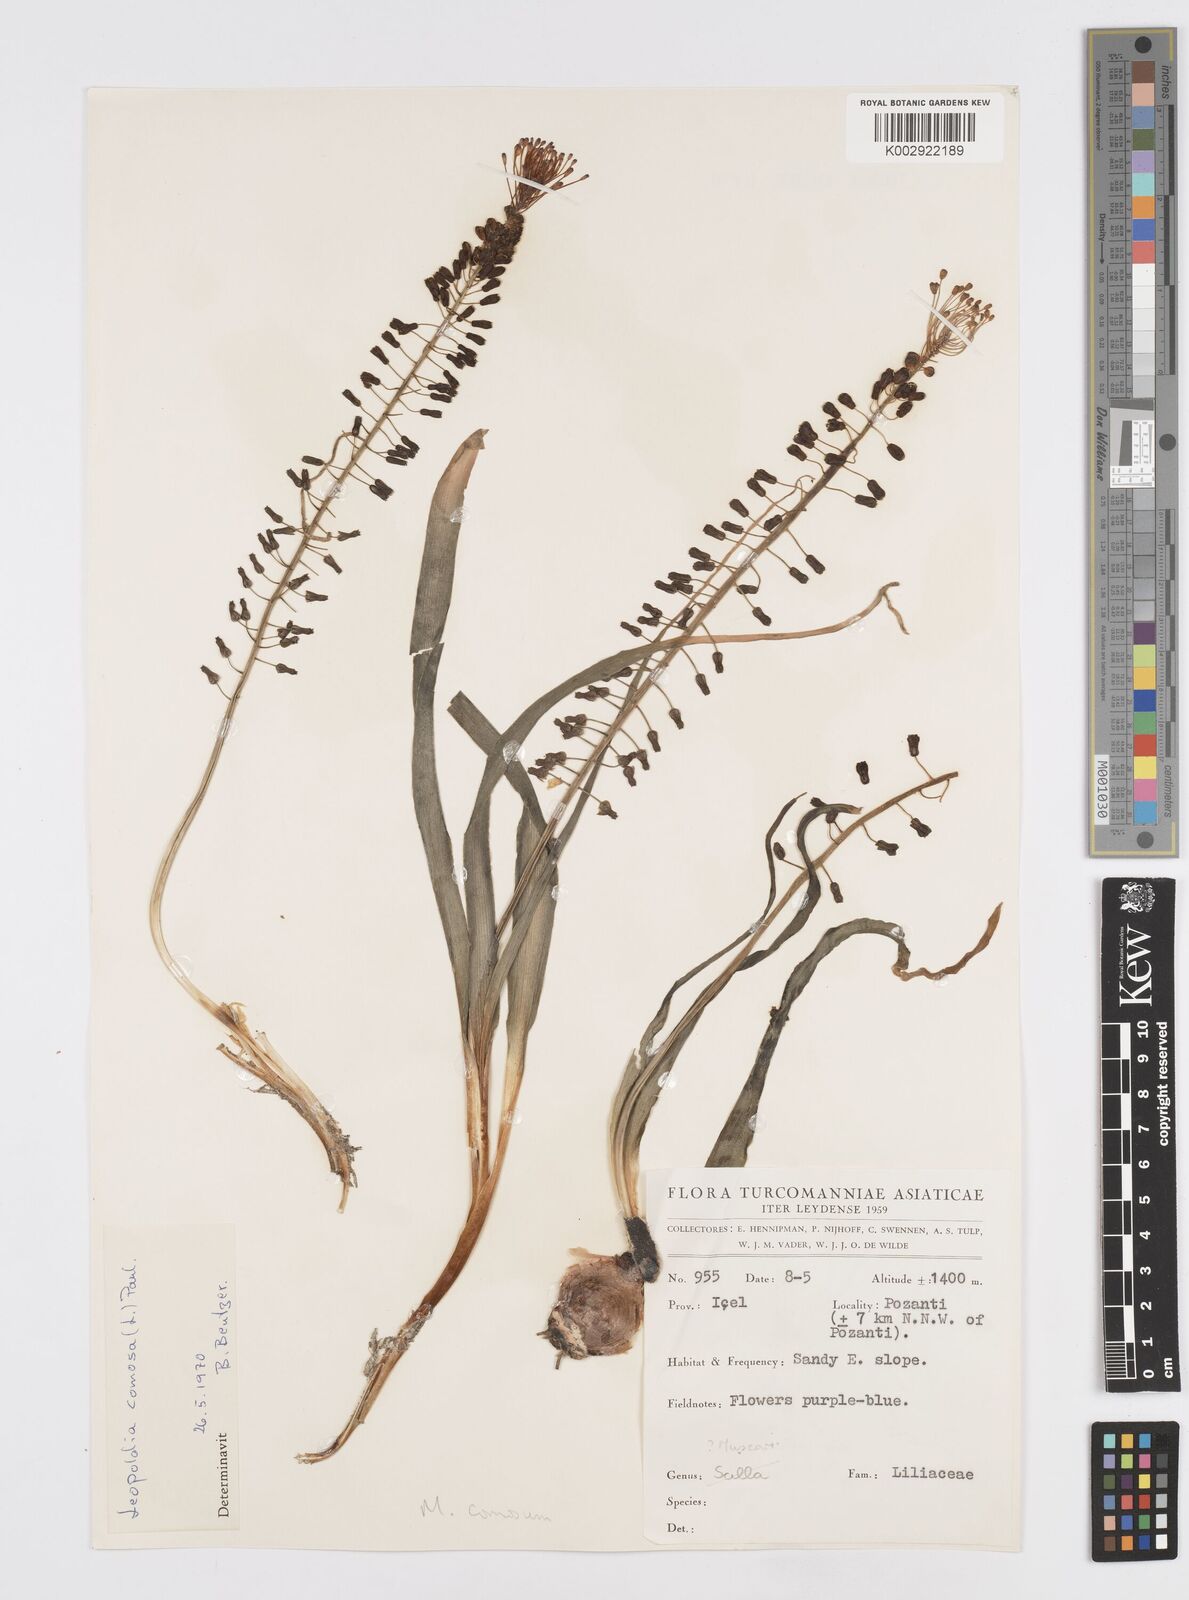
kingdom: Plantae
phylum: Tracheophyta
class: Liliopsida
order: Asparagales
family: Asparagaceae
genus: Muscari
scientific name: Muscari comosum
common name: Tassel hyacinth
